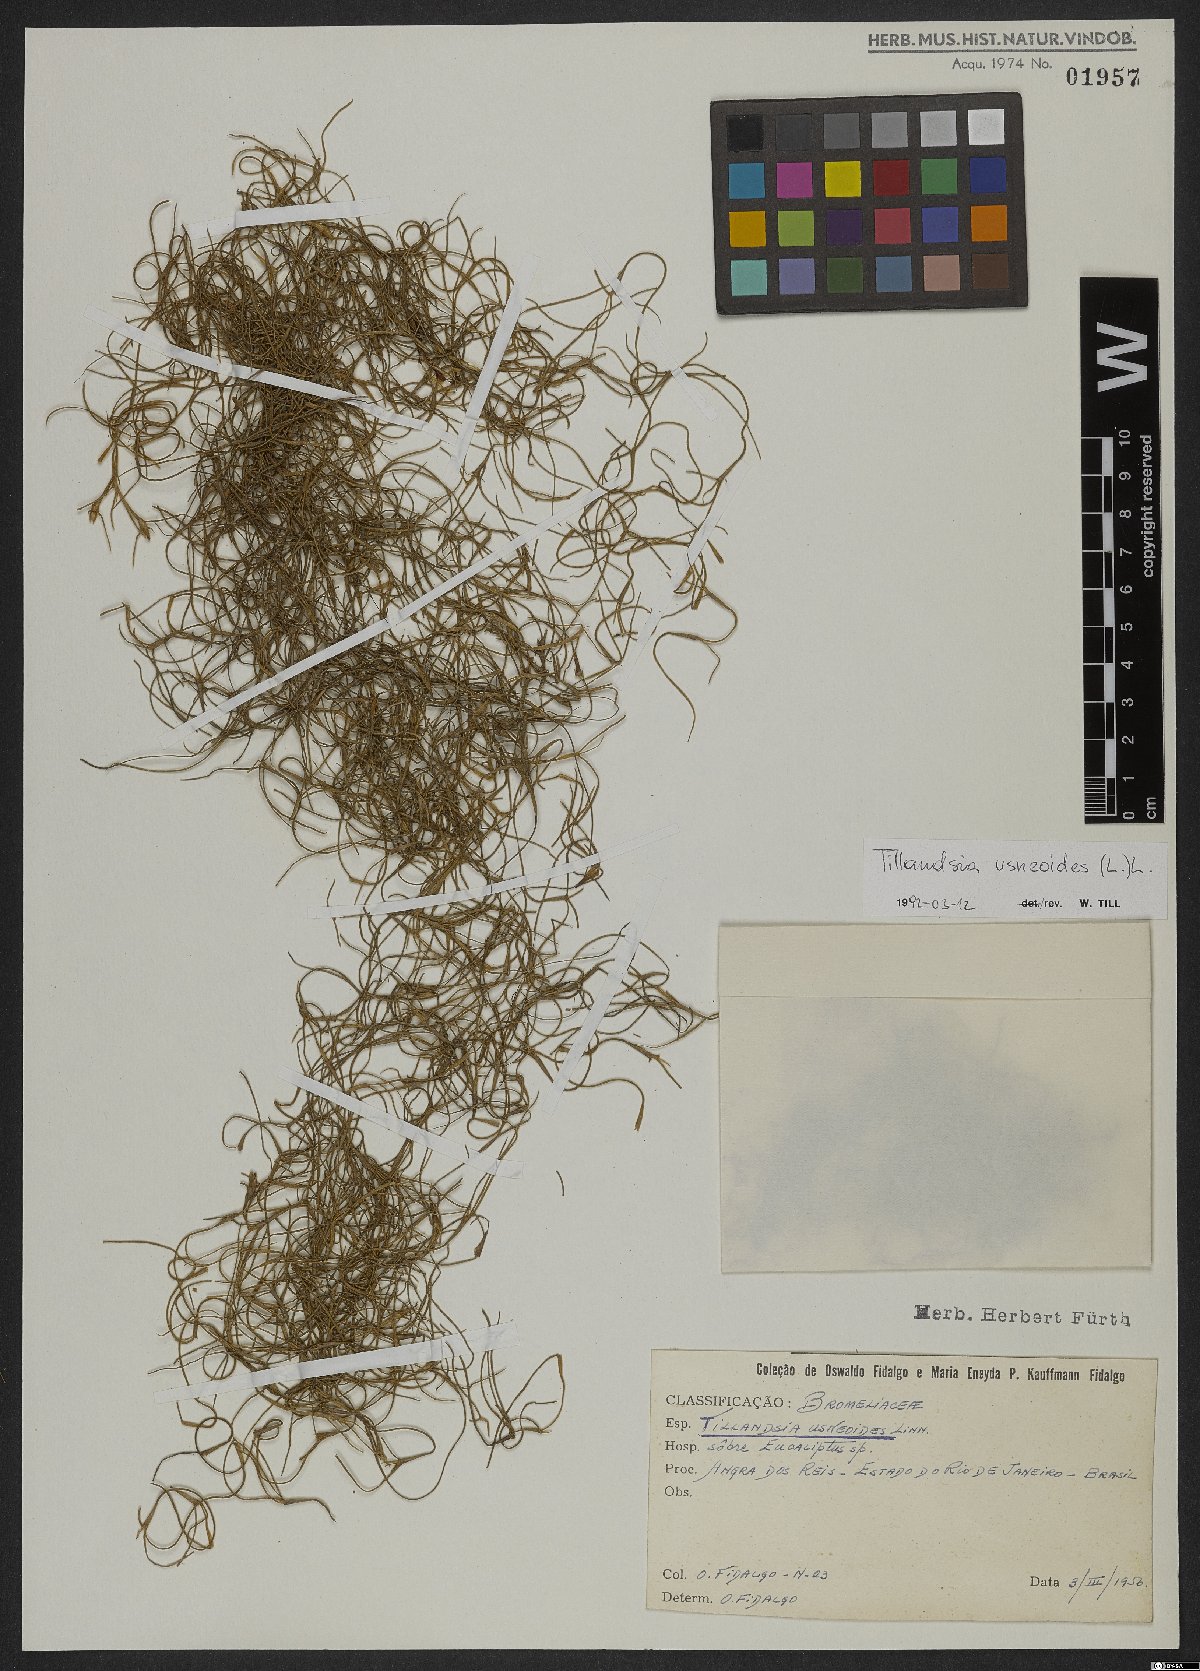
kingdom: Plantae
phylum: Tracheophyta
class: Liliopsida
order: Poales
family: Bromeliaceae
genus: Tillandsia
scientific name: Tillandsia usneoides
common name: Spanish moss
